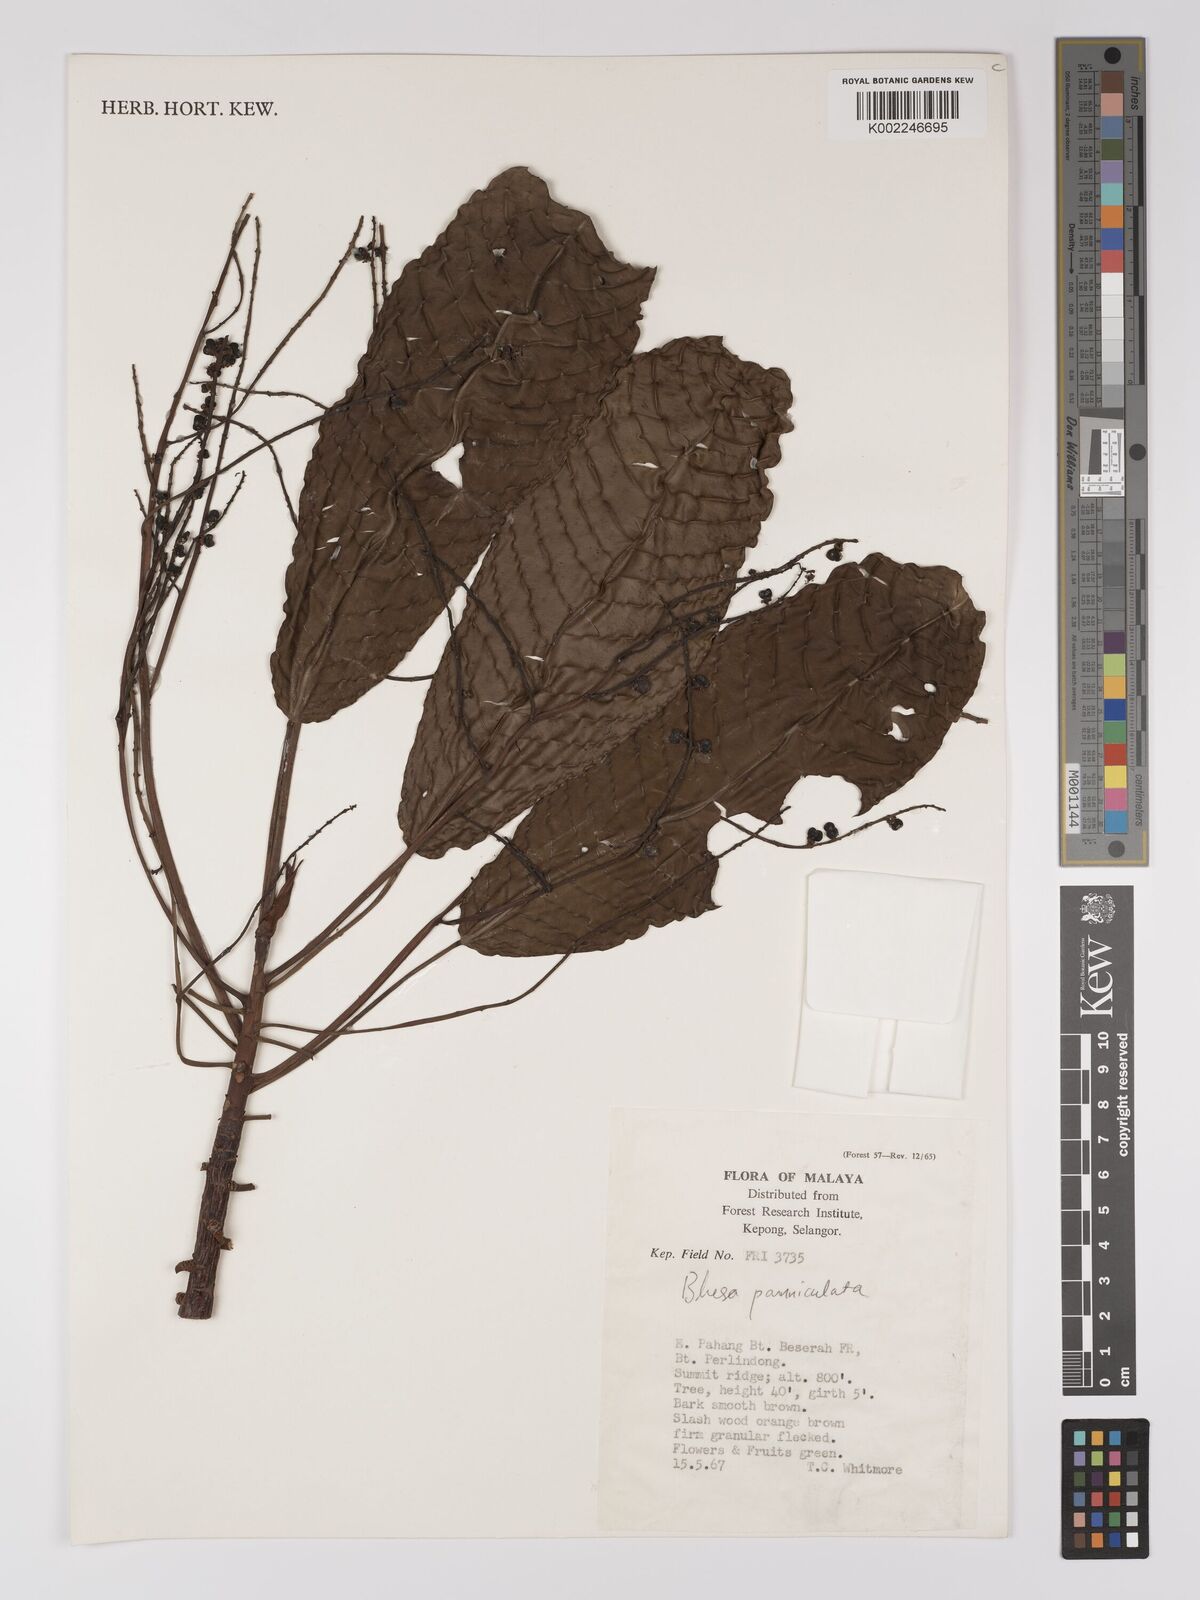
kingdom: Plantae
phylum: Tracheophyta
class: Magnoliopsida
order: Malpighiales
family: Centroplacaceae
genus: Bhesa
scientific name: Bhesa paniculata
